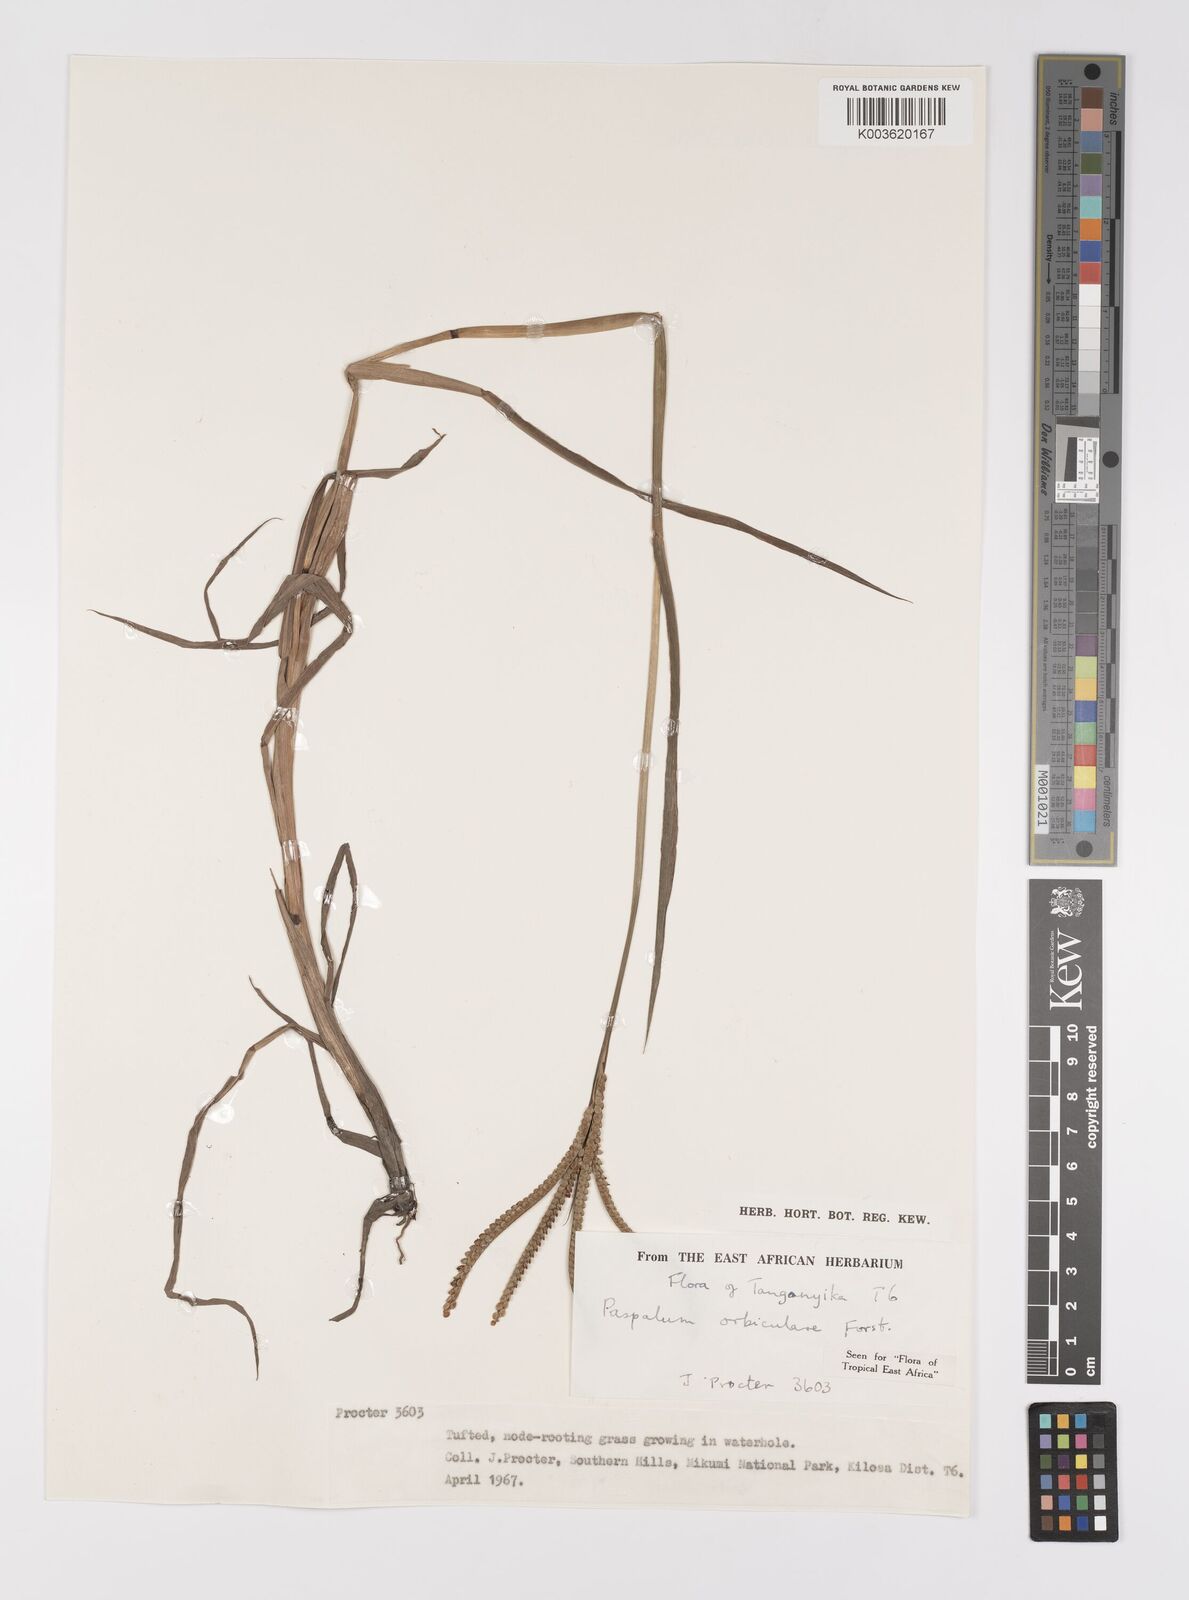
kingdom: Plantae
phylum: Tracheophyta
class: Liliopsida
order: Poales
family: Poaceae
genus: Paspalum
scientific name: Paspalum scrobiculatum
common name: Kodo millet
